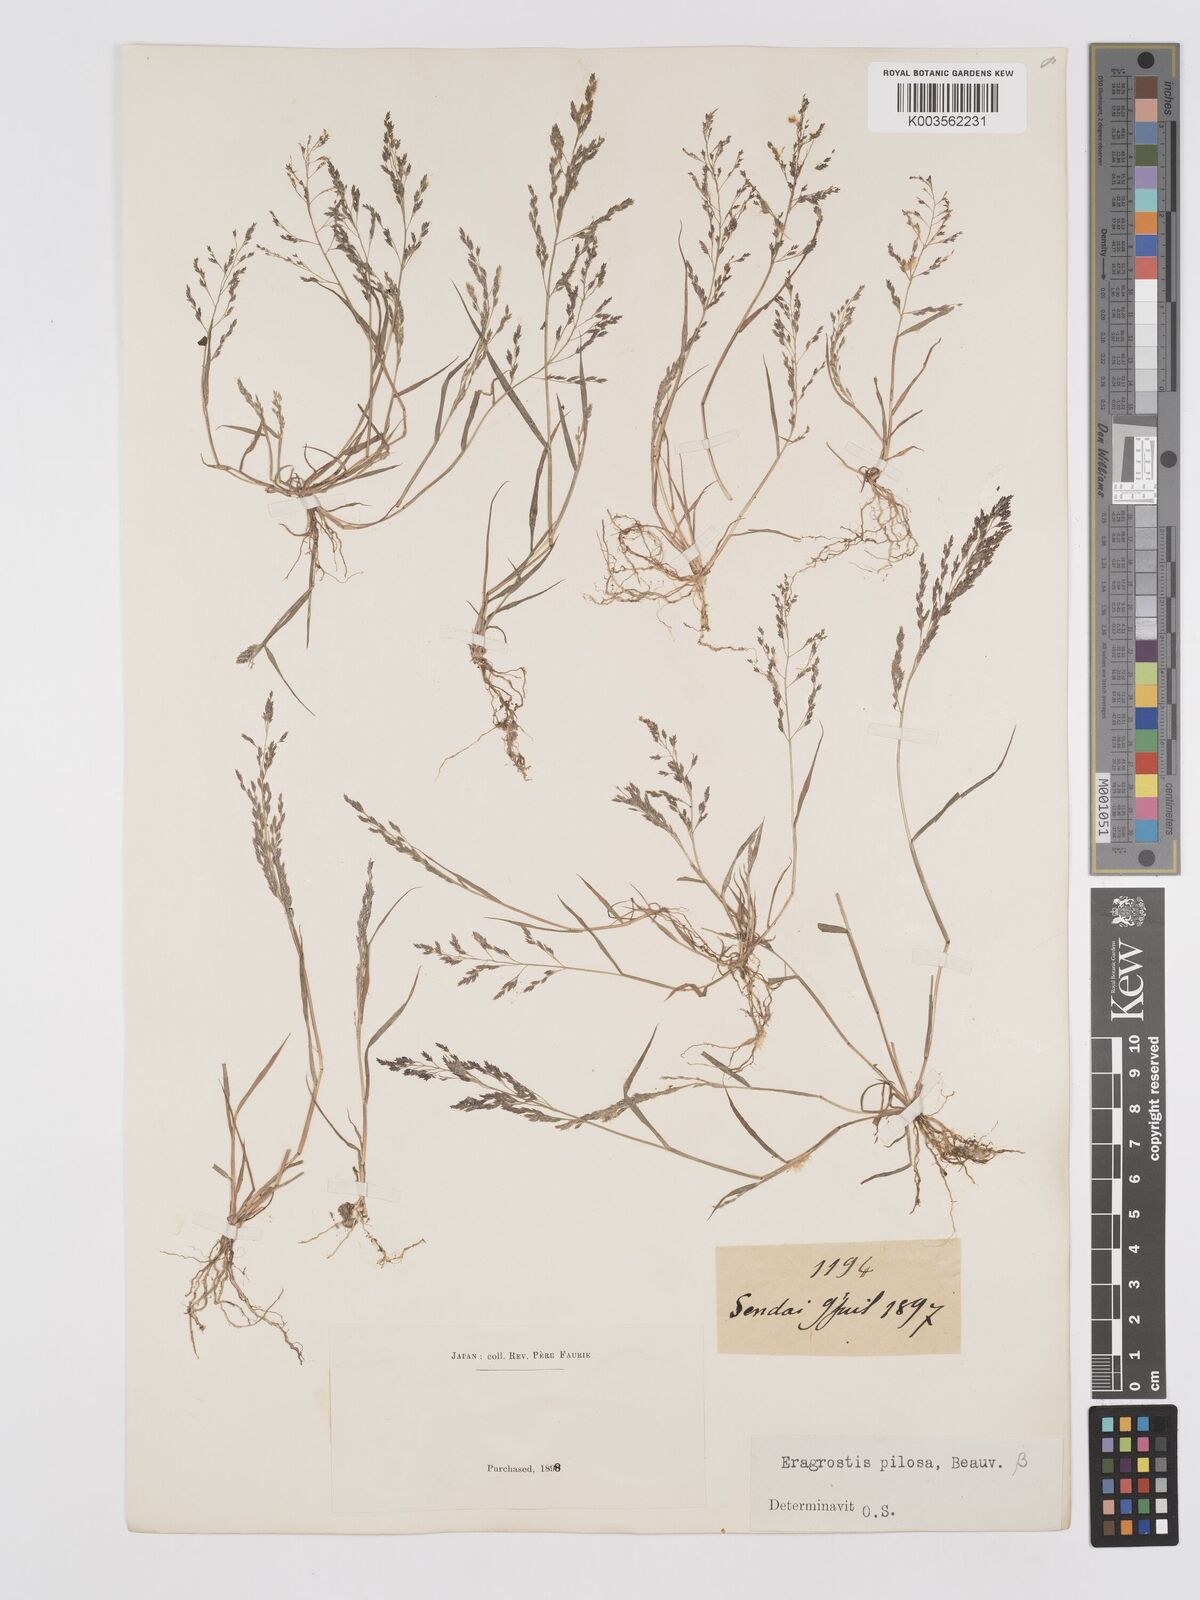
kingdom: Plantae
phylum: Tracheophyta
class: Liliopsida
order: Poales
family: Poaceae
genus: Eragrostis
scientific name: Eragrostis pilosa
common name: Indian lovegrass
